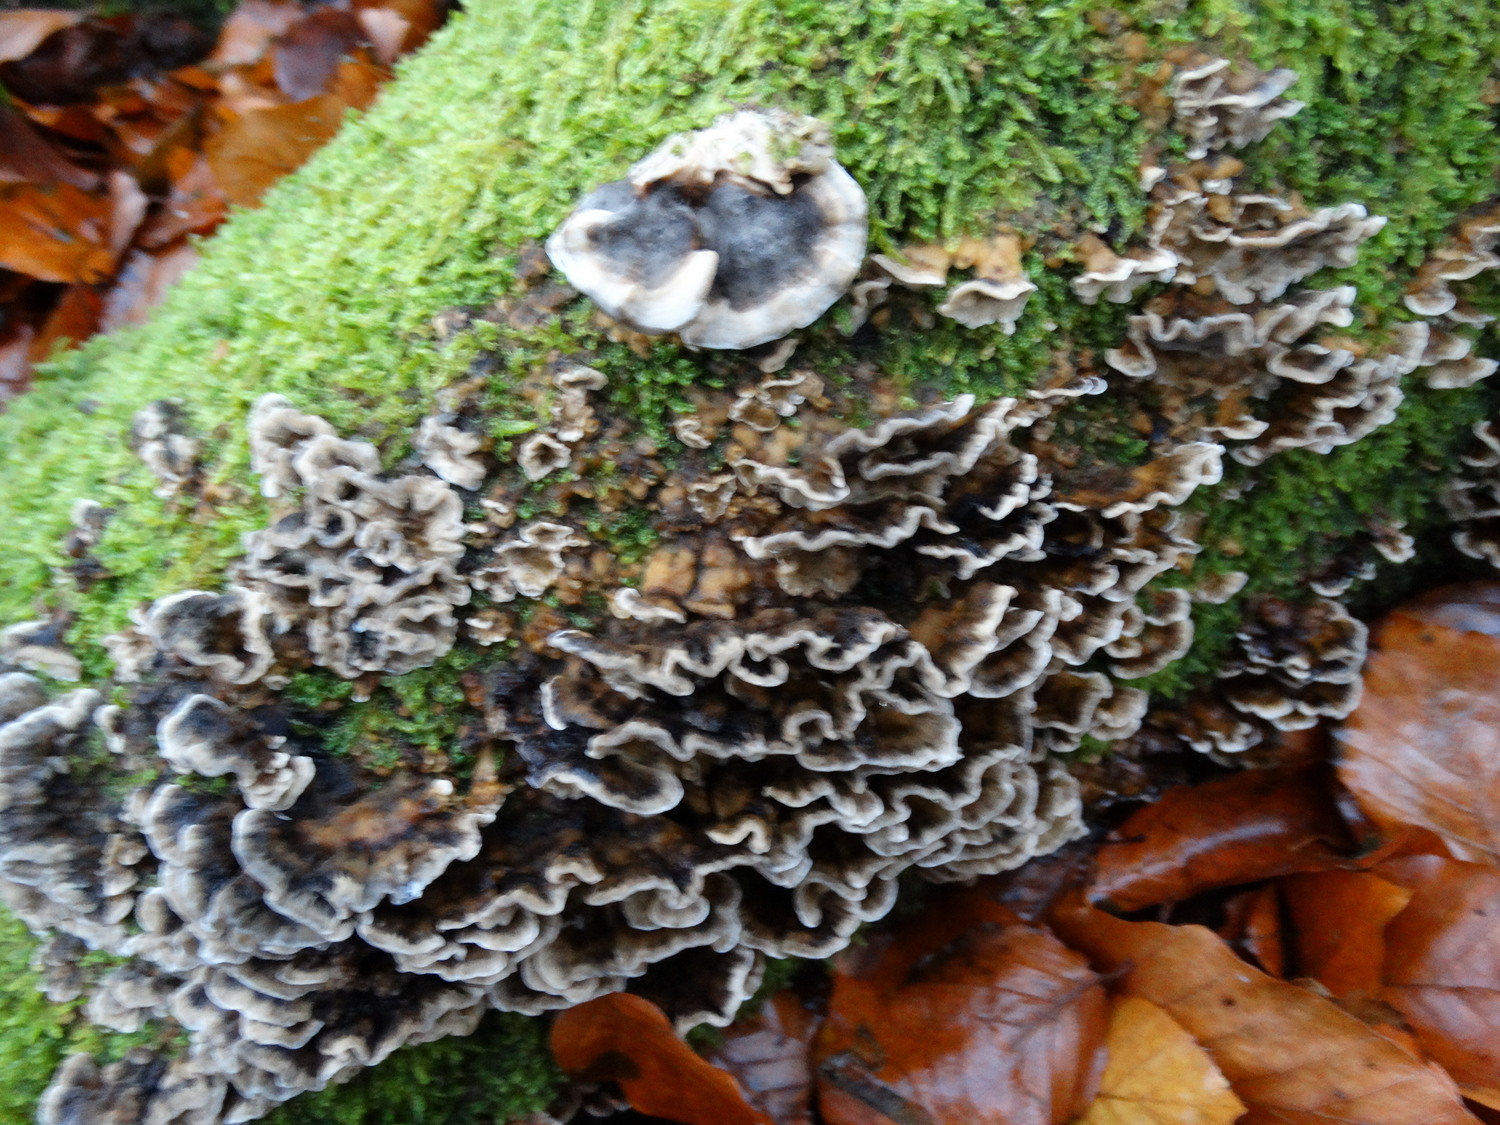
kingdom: Fungi
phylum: Basidiomycota
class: Agaricomycetes
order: Polyporales
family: Phanerochaetaceae
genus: Bjerkandera
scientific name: Bjerkandera adusta
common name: sveden sodporesvamp
